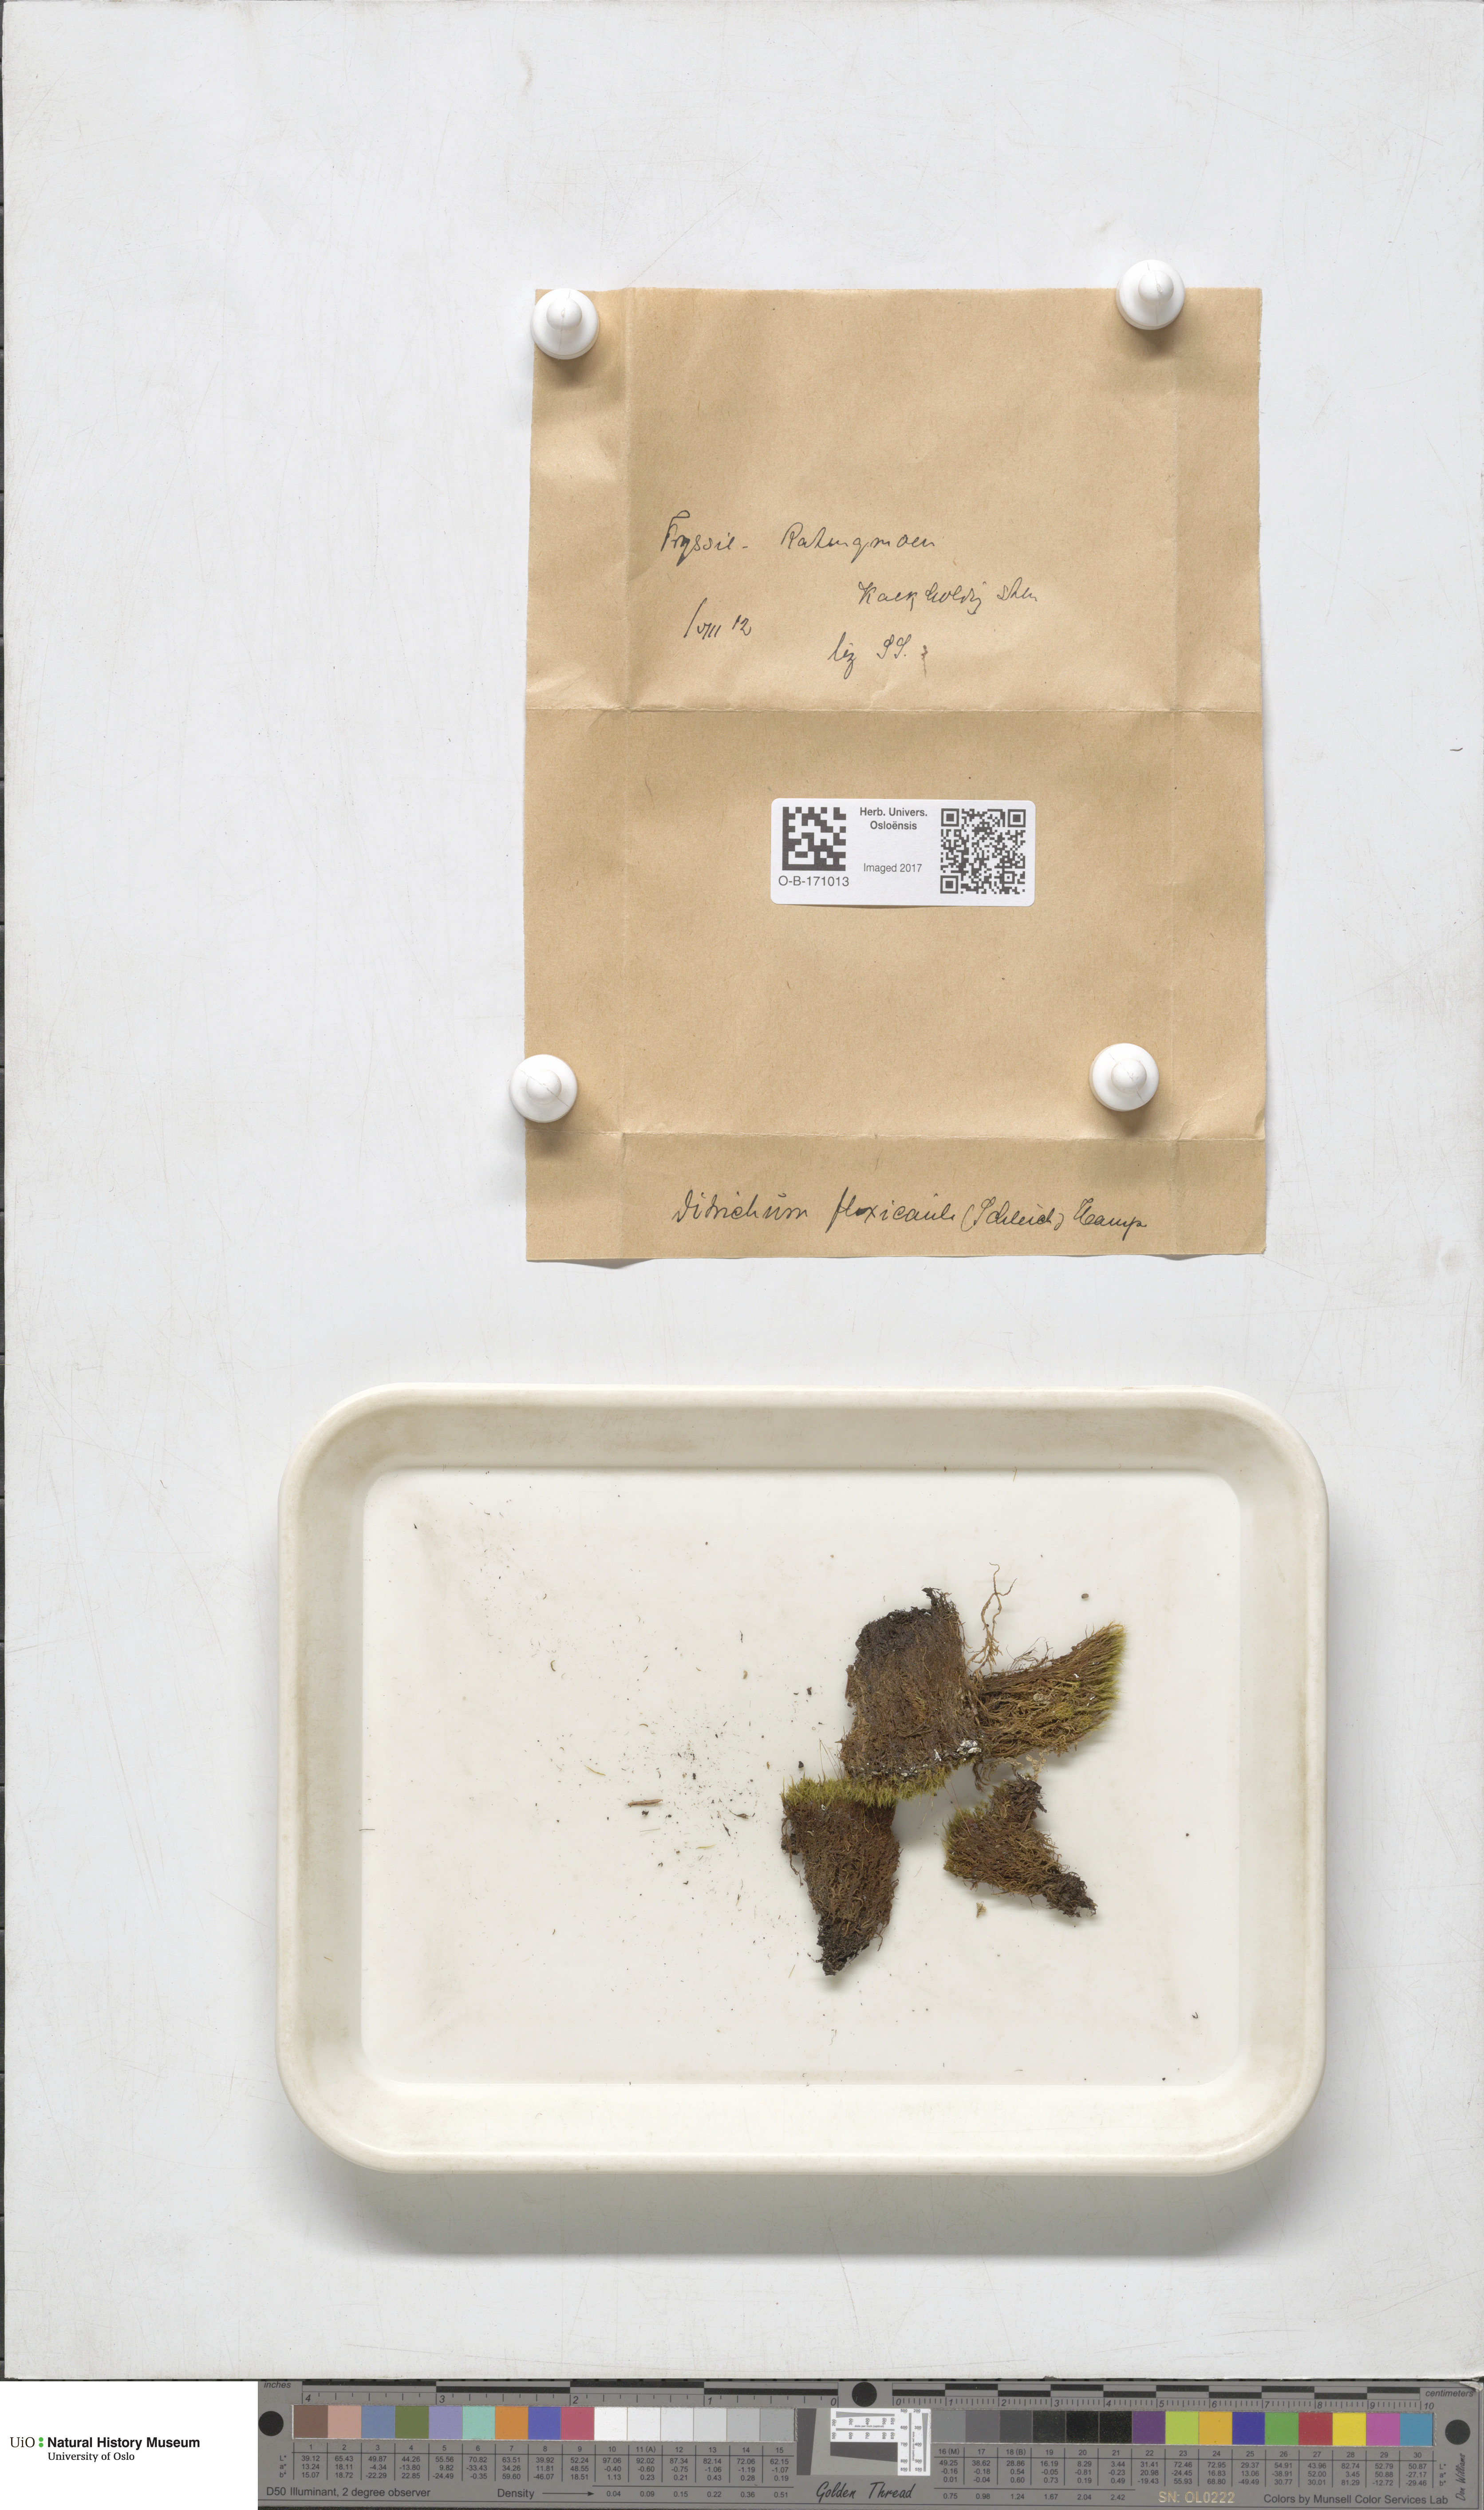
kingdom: Plantae
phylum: Bryophyta
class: Bryopsida
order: Scouleriales
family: Flexitrichaceae
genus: Flexitrichum
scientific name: Flexitrichum flexicaule
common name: Bendy ditrichum
